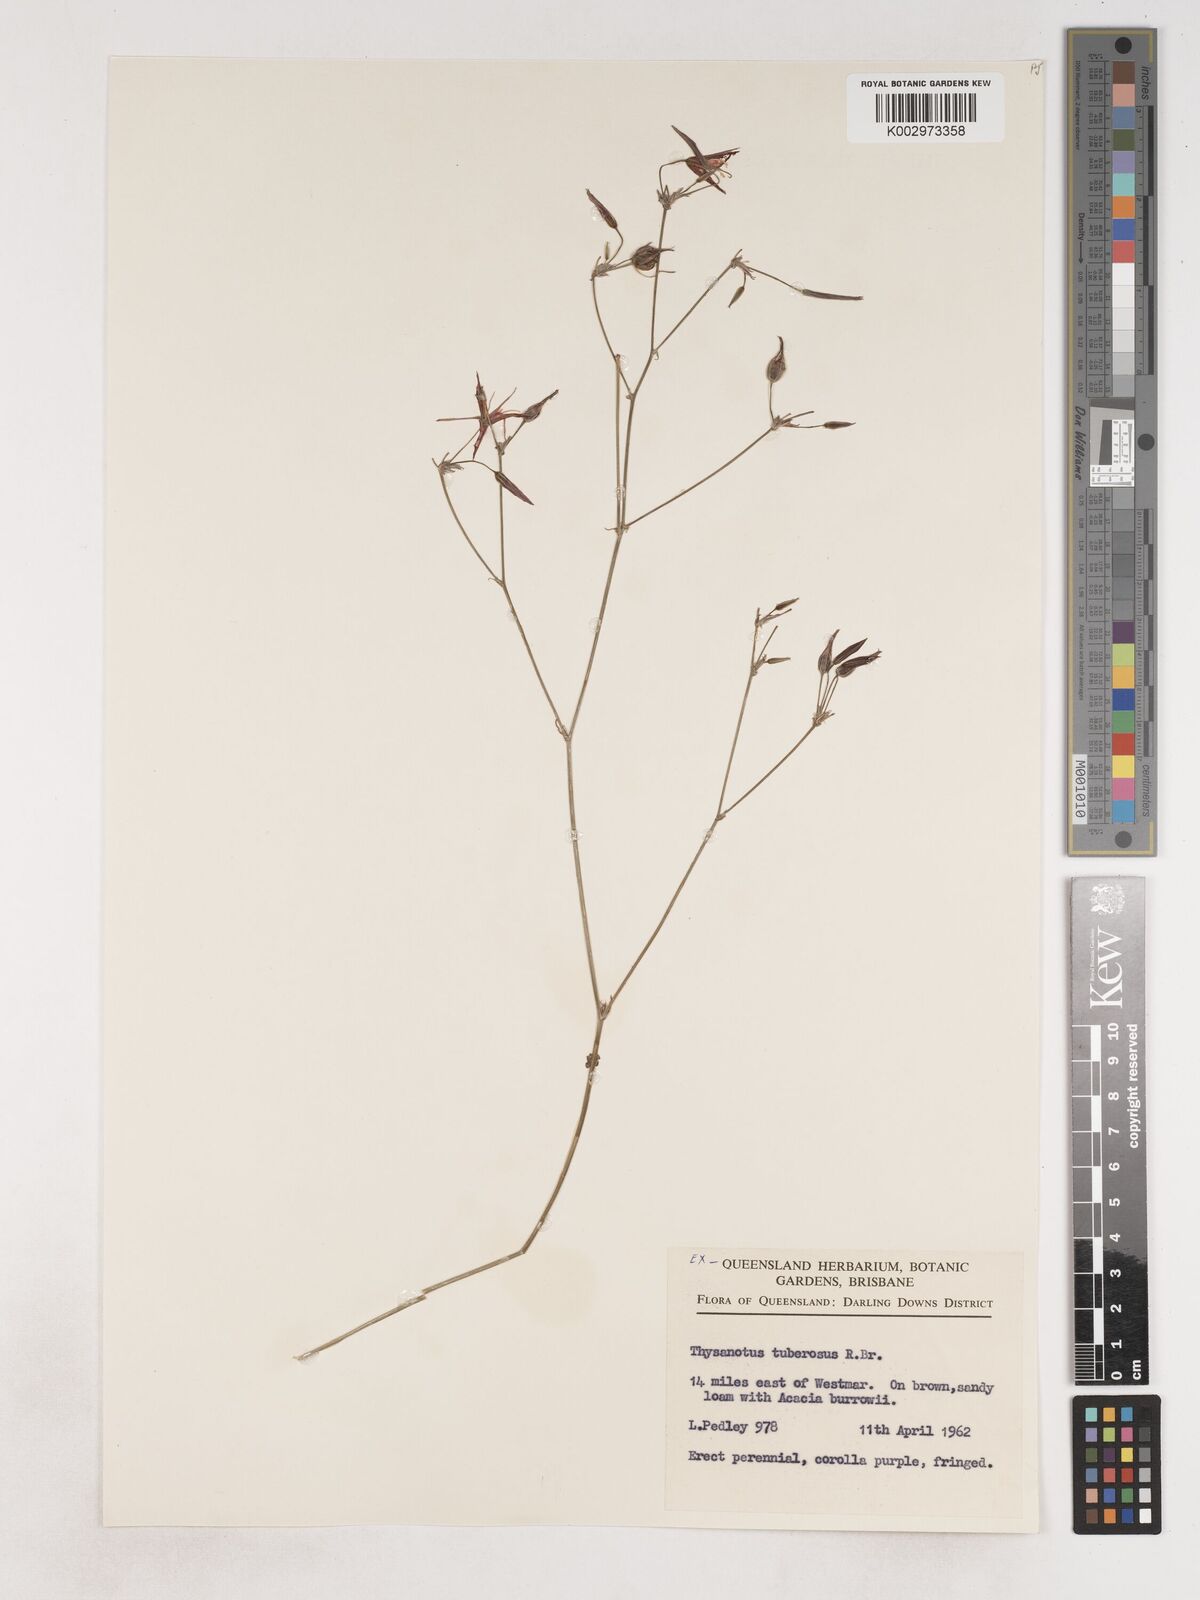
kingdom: Plantae
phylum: Tracheophyta
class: Liliopsida
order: Asparagales
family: Asparagaceae
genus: Thysanotus
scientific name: Thysanotus tuberosus
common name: Common fringed-lily
